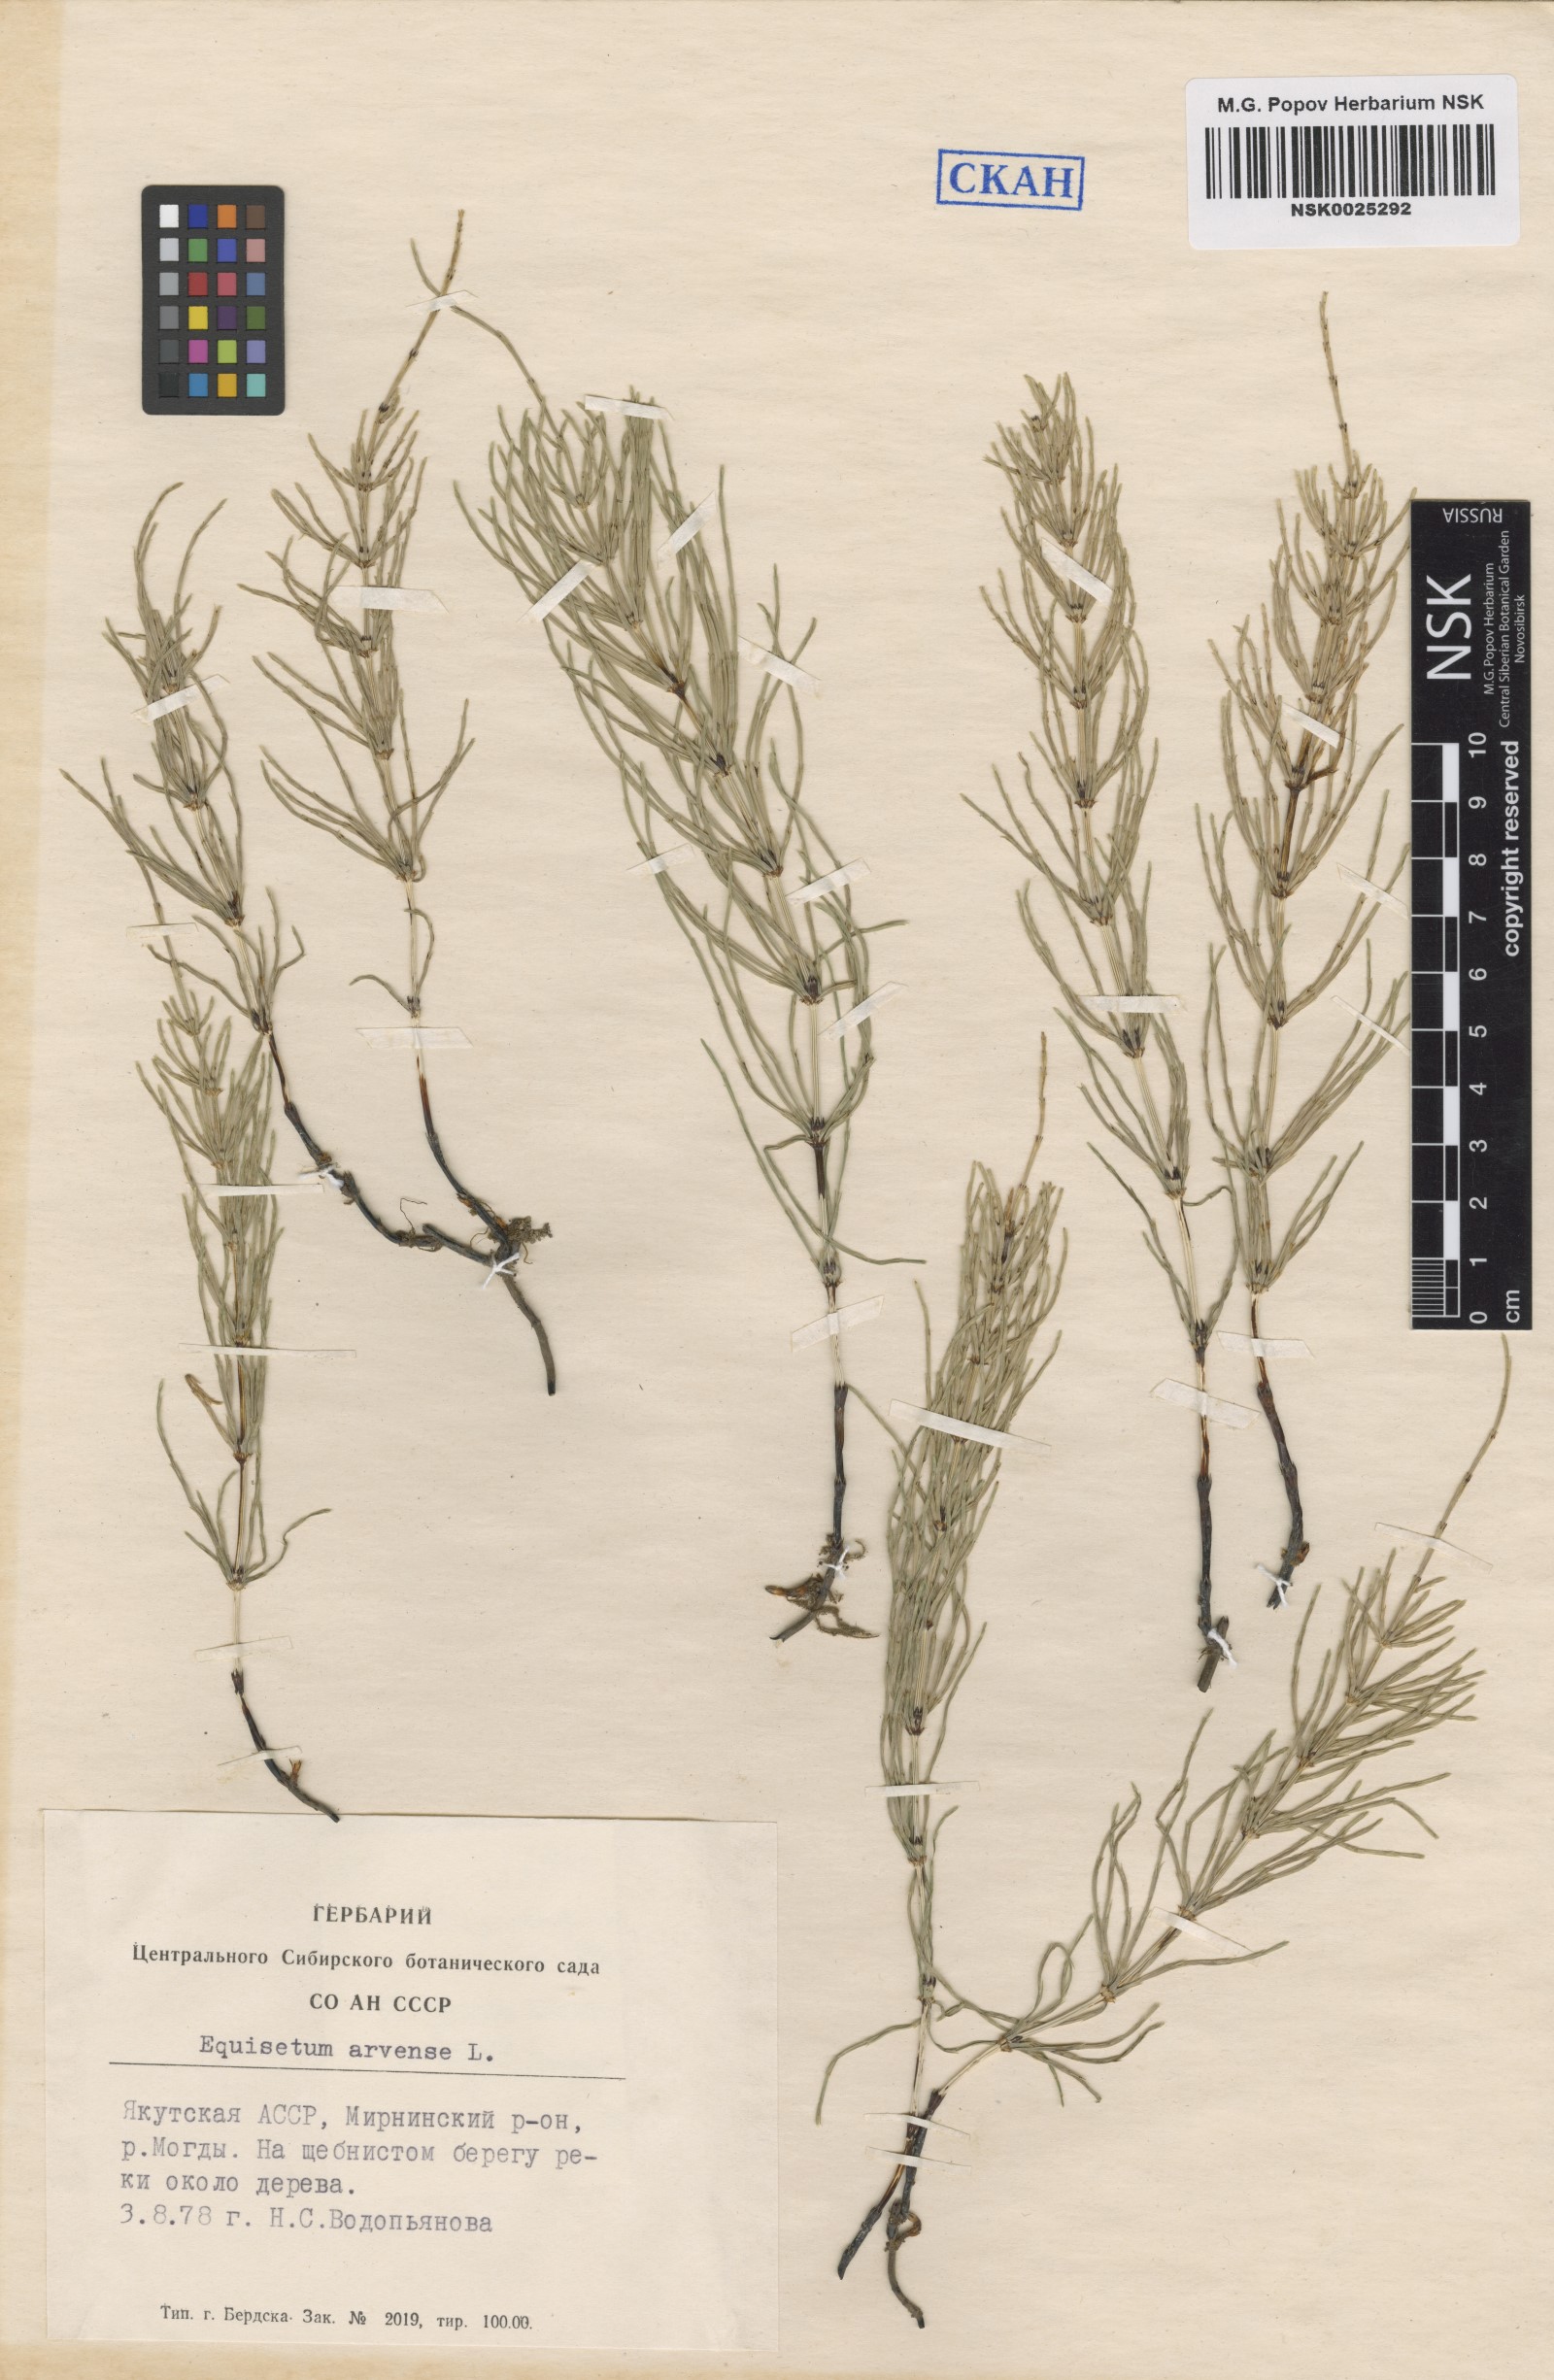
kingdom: Plantae
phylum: Tracheophyta
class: Polypodiopsida
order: Equisetales
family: Equisetaceae
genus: Equisetum
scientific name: Equisetum arvense
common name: Field horsetail
